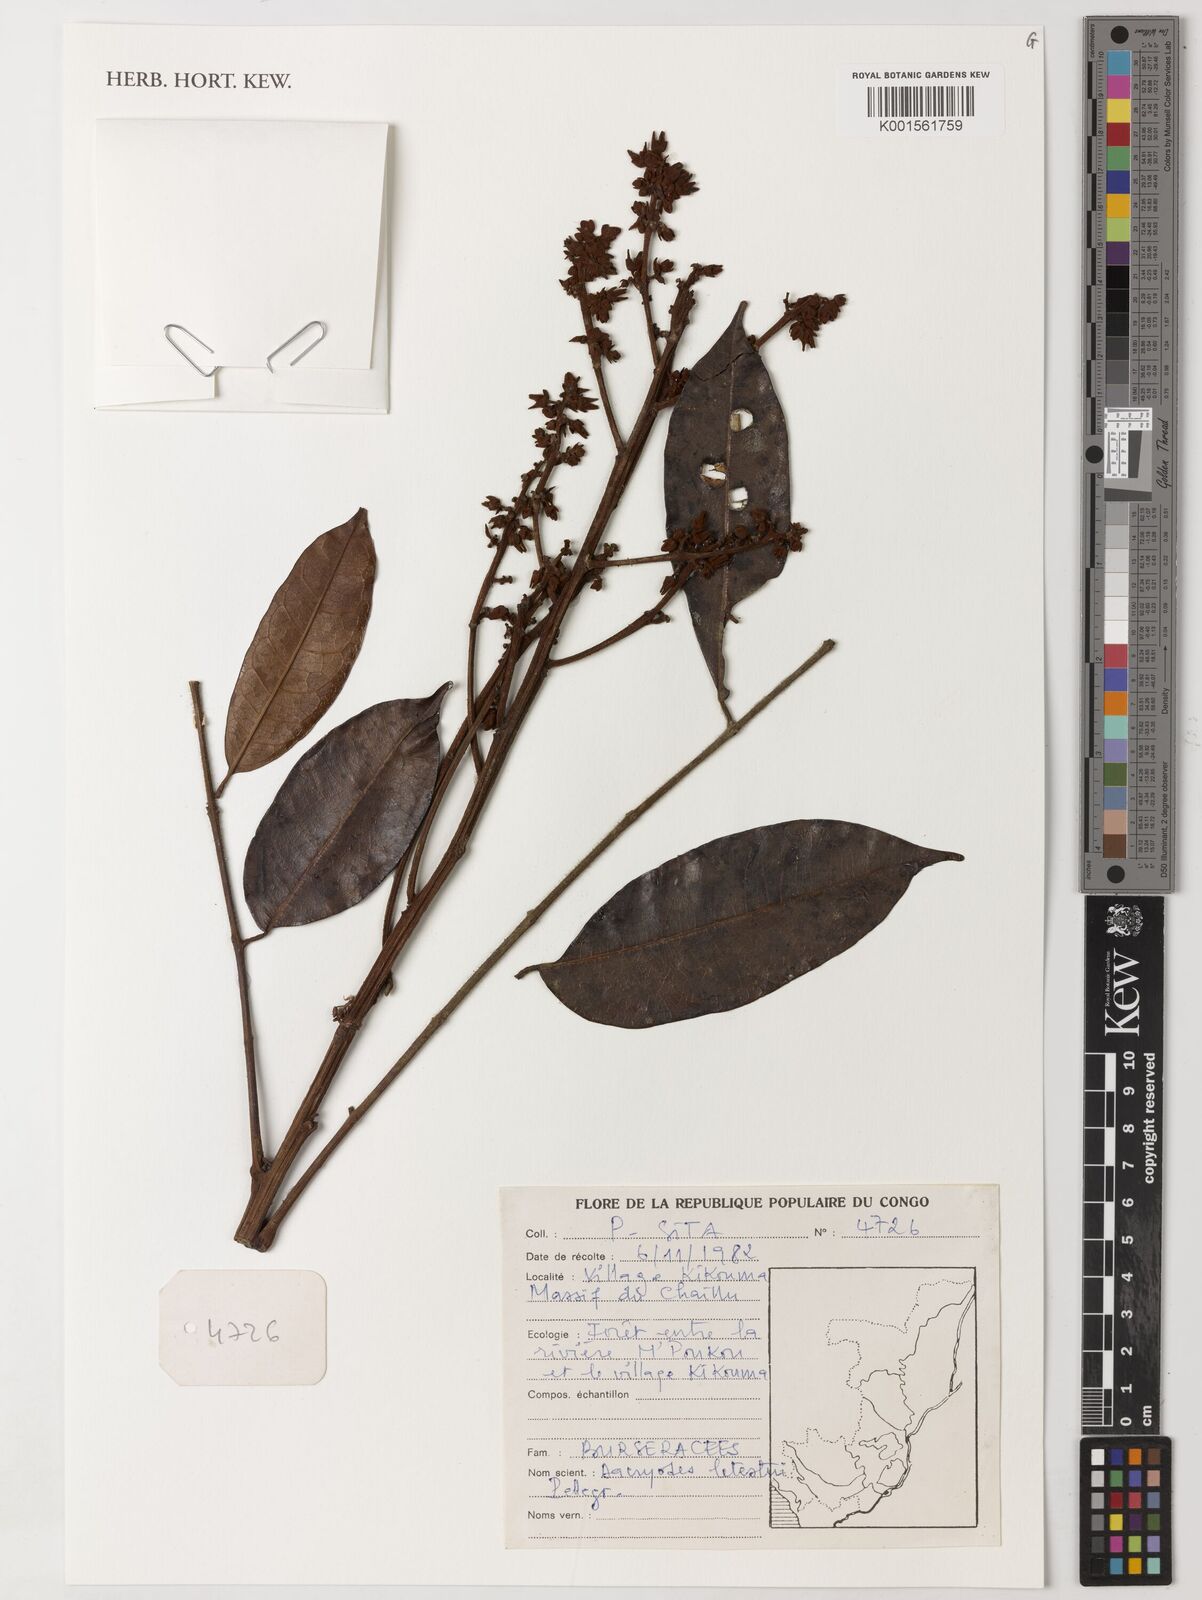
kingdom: Plantae
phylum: Tracheophyta
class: Magnoliopsida
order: Sapindales
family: Burseraceae
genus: Pachylobus
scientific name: Pachylobus letestui
